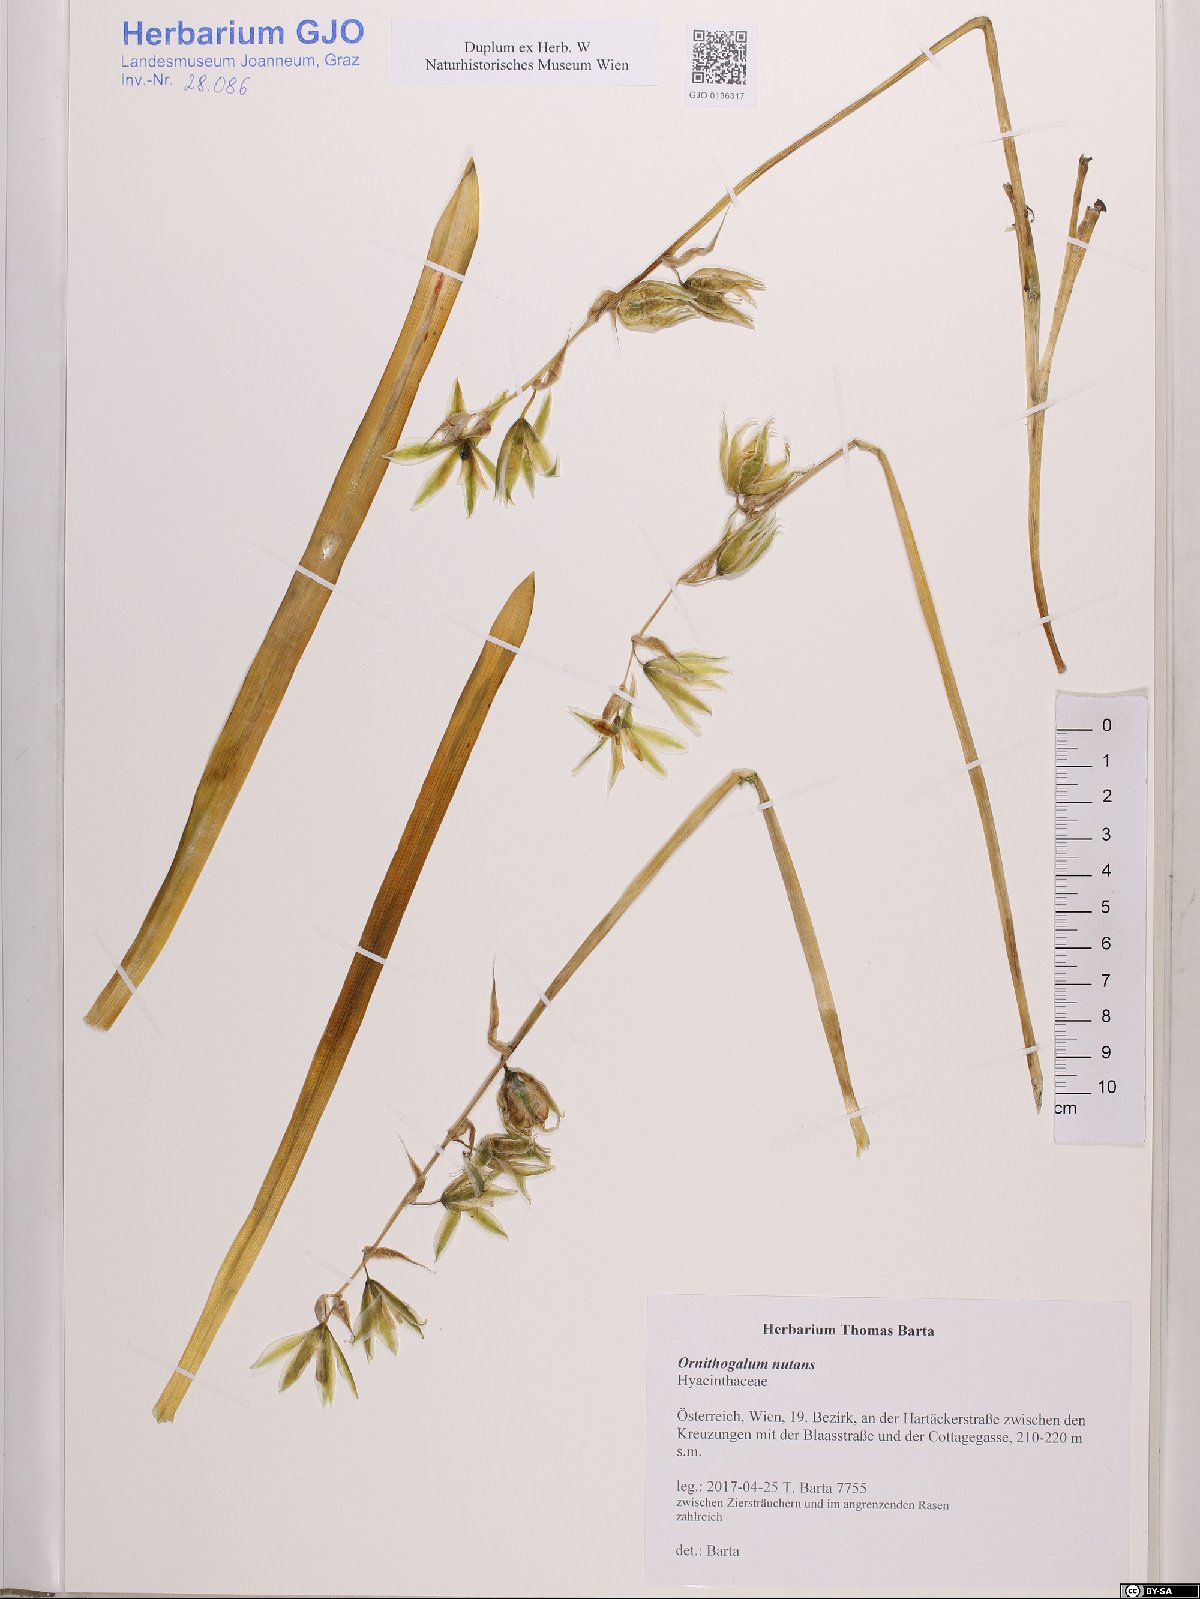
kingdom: Plantae
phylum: Tracheophyta
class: Liliopsida
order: Asparagales
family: Asparagaceae
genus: Ornithogalum
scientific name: Ornithogalum nutans
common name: Drooping star-of-bethlehem
